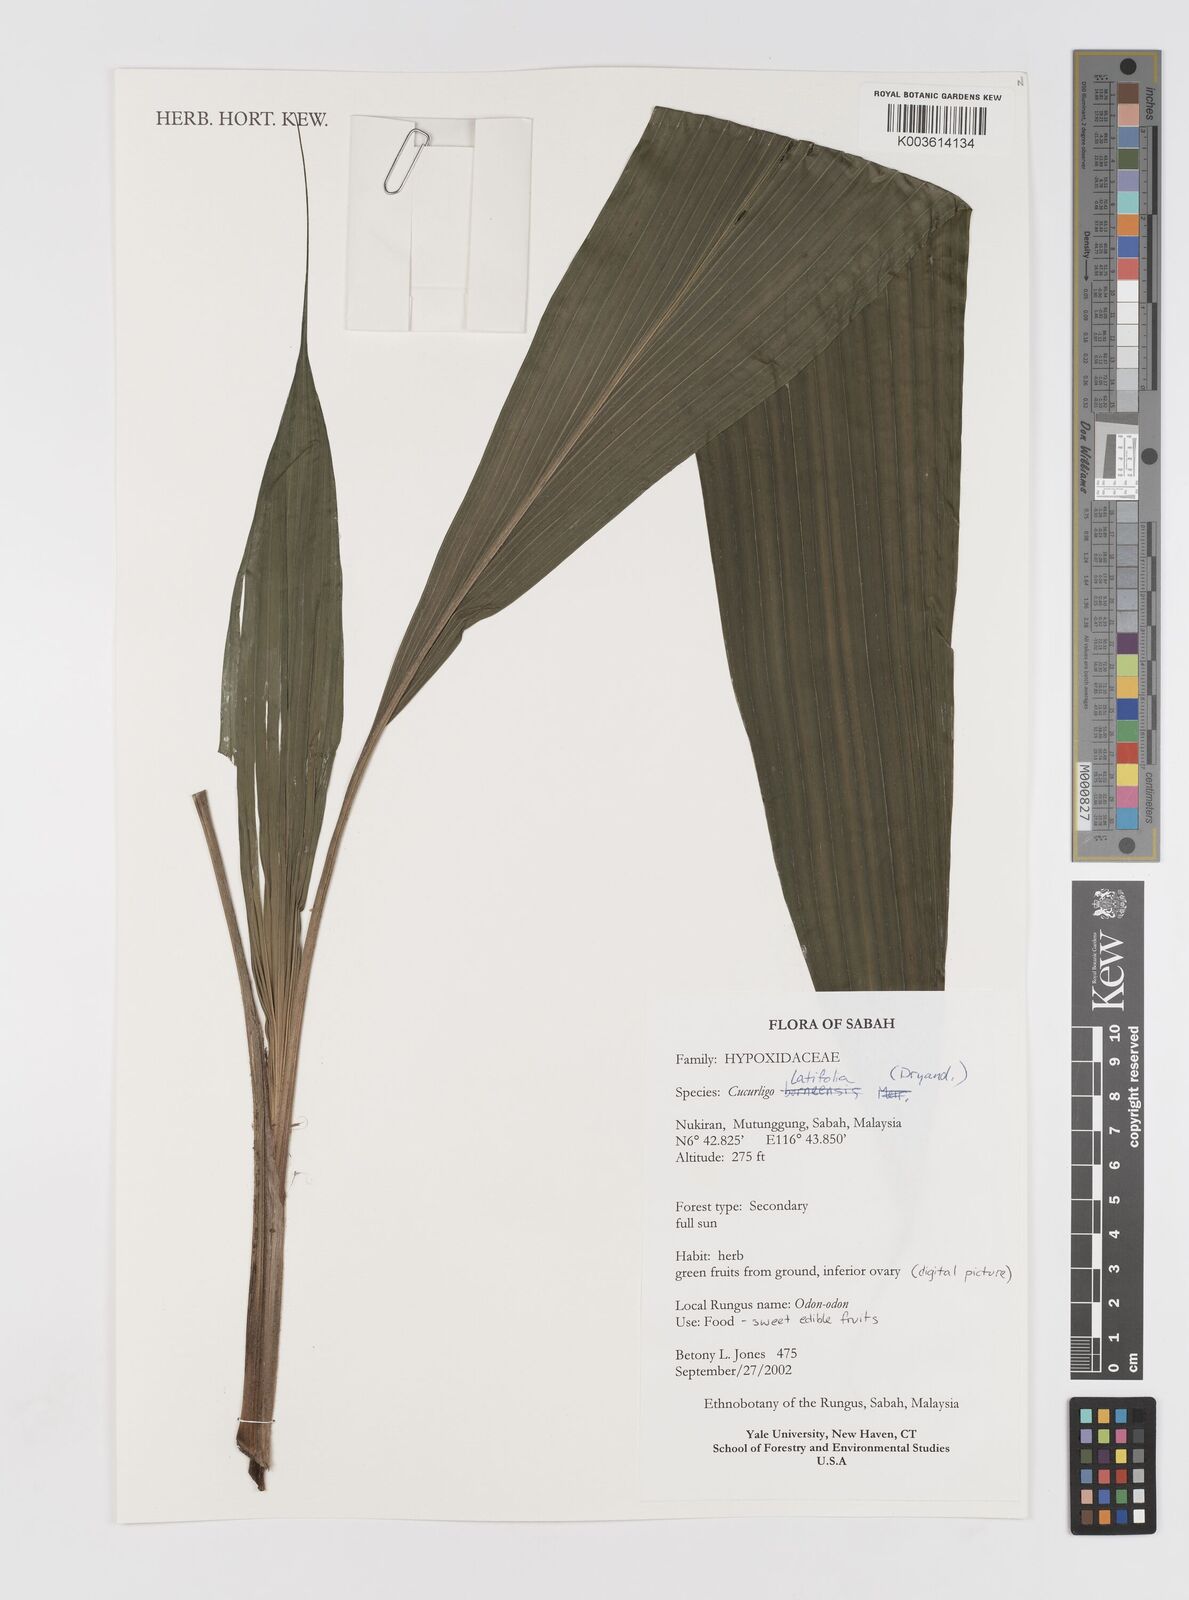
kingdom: Plantae
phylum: Tracheophyta
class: Liliopsida
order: Asparagales
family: Hypoxidaceae
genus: Curculigo
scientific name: Curculigo latifolia
